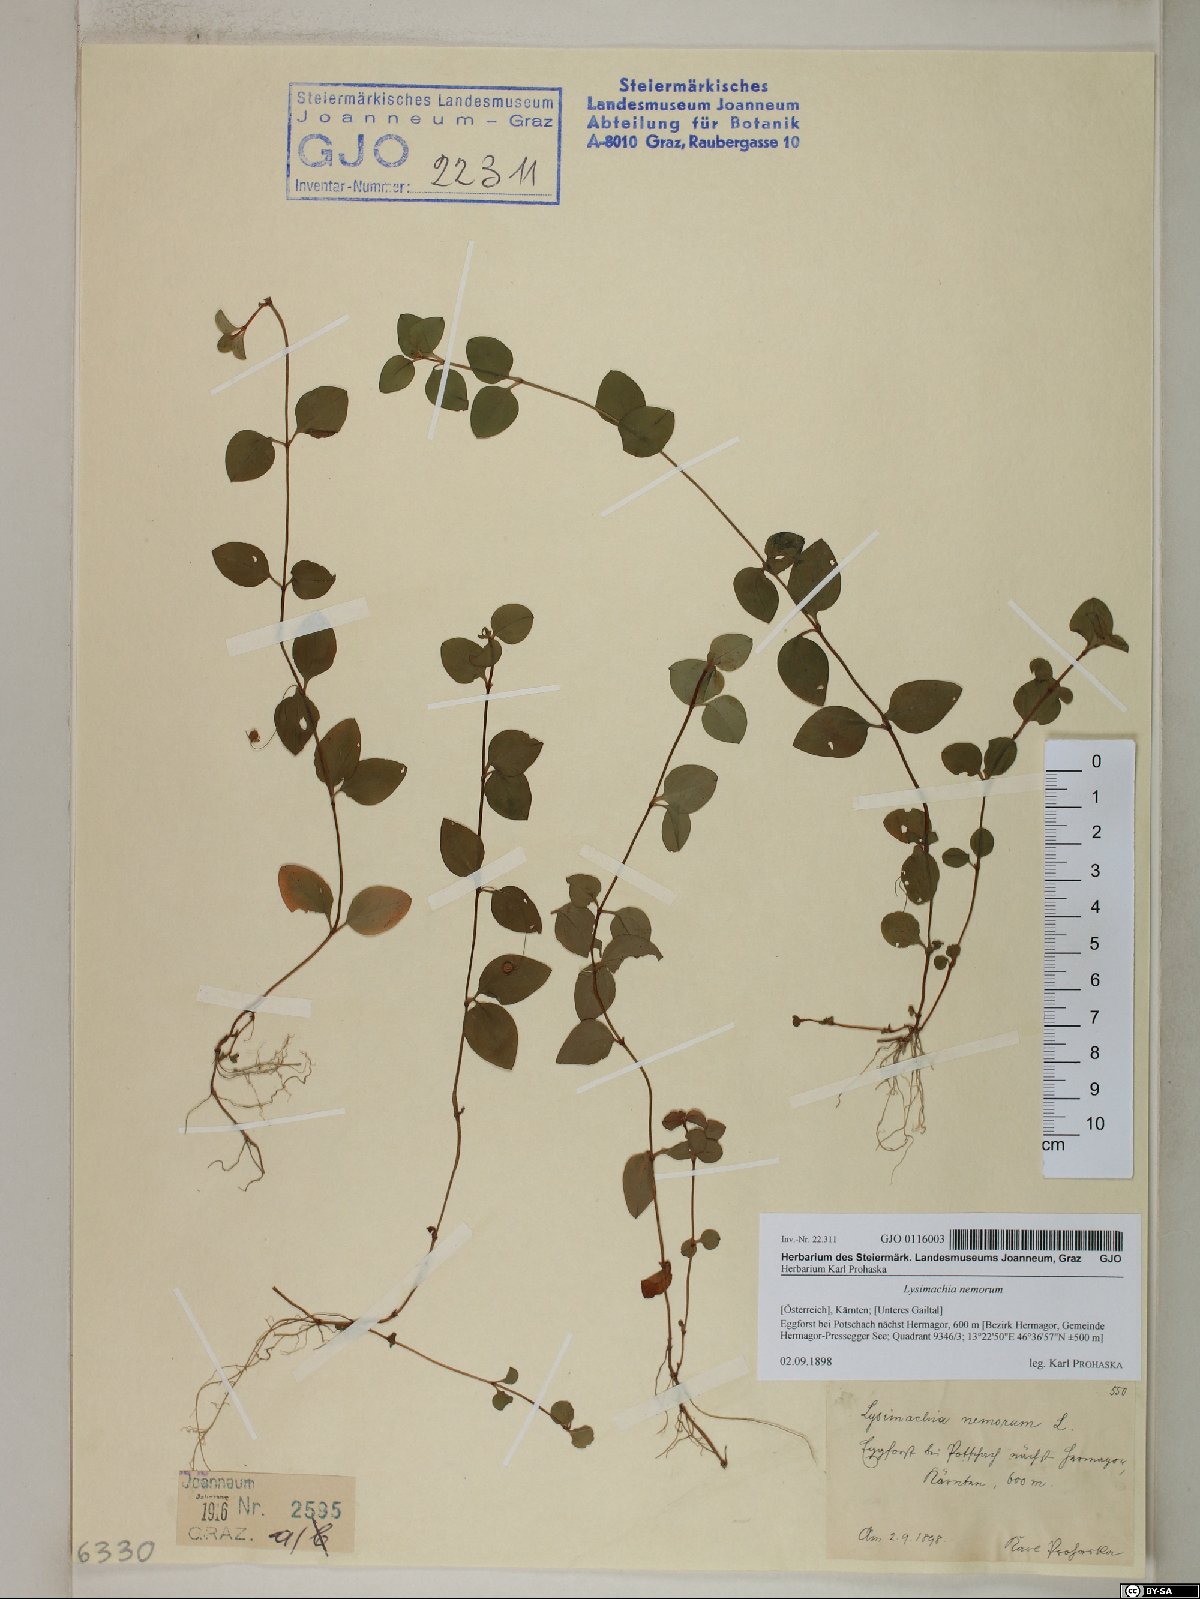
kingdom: Plantae
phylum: Tracheophyta
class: Magnoliopsida
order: Ericales
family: Primulaceae
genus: Lysimachia
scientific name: Lysimachia nemorum
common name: Yellow pimpernel
